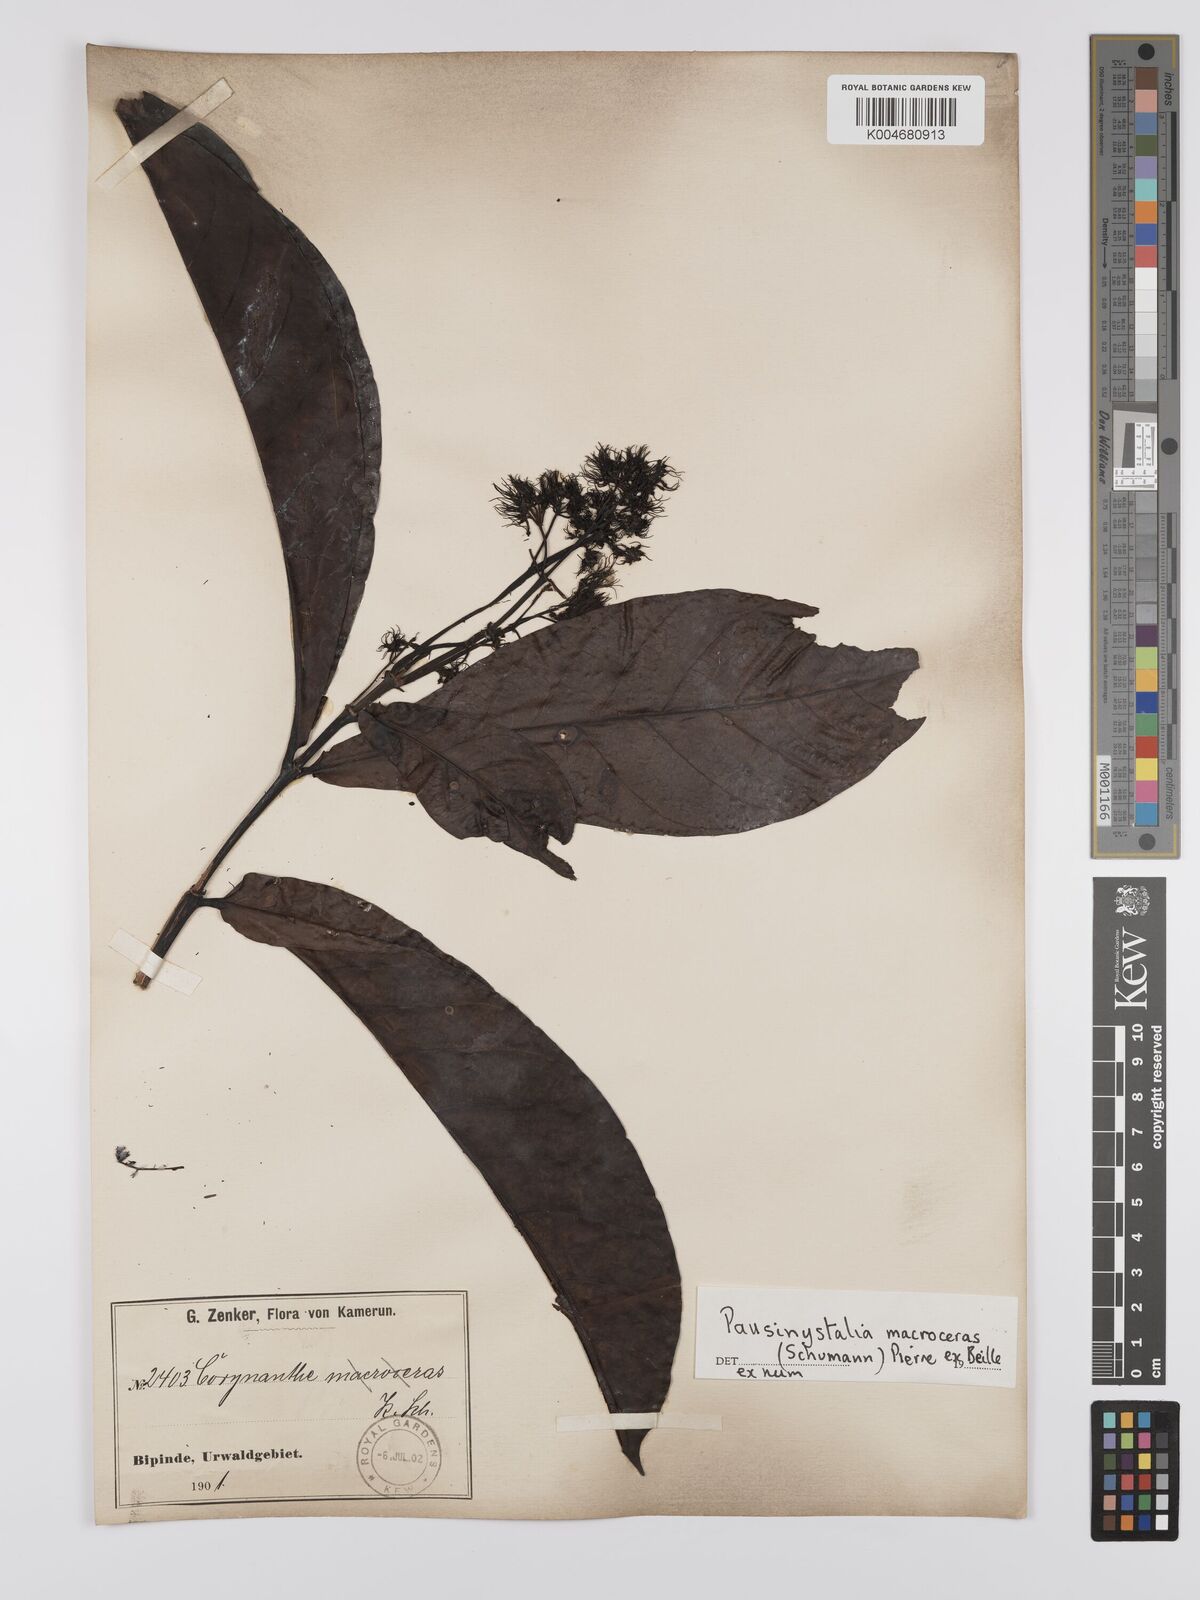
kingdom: Plantae
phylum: Tracheophyta
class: Magnoliopsida
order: Gentianales
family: Rubiaceae
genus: Corynanthe
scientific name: Corynanthe macroceras
